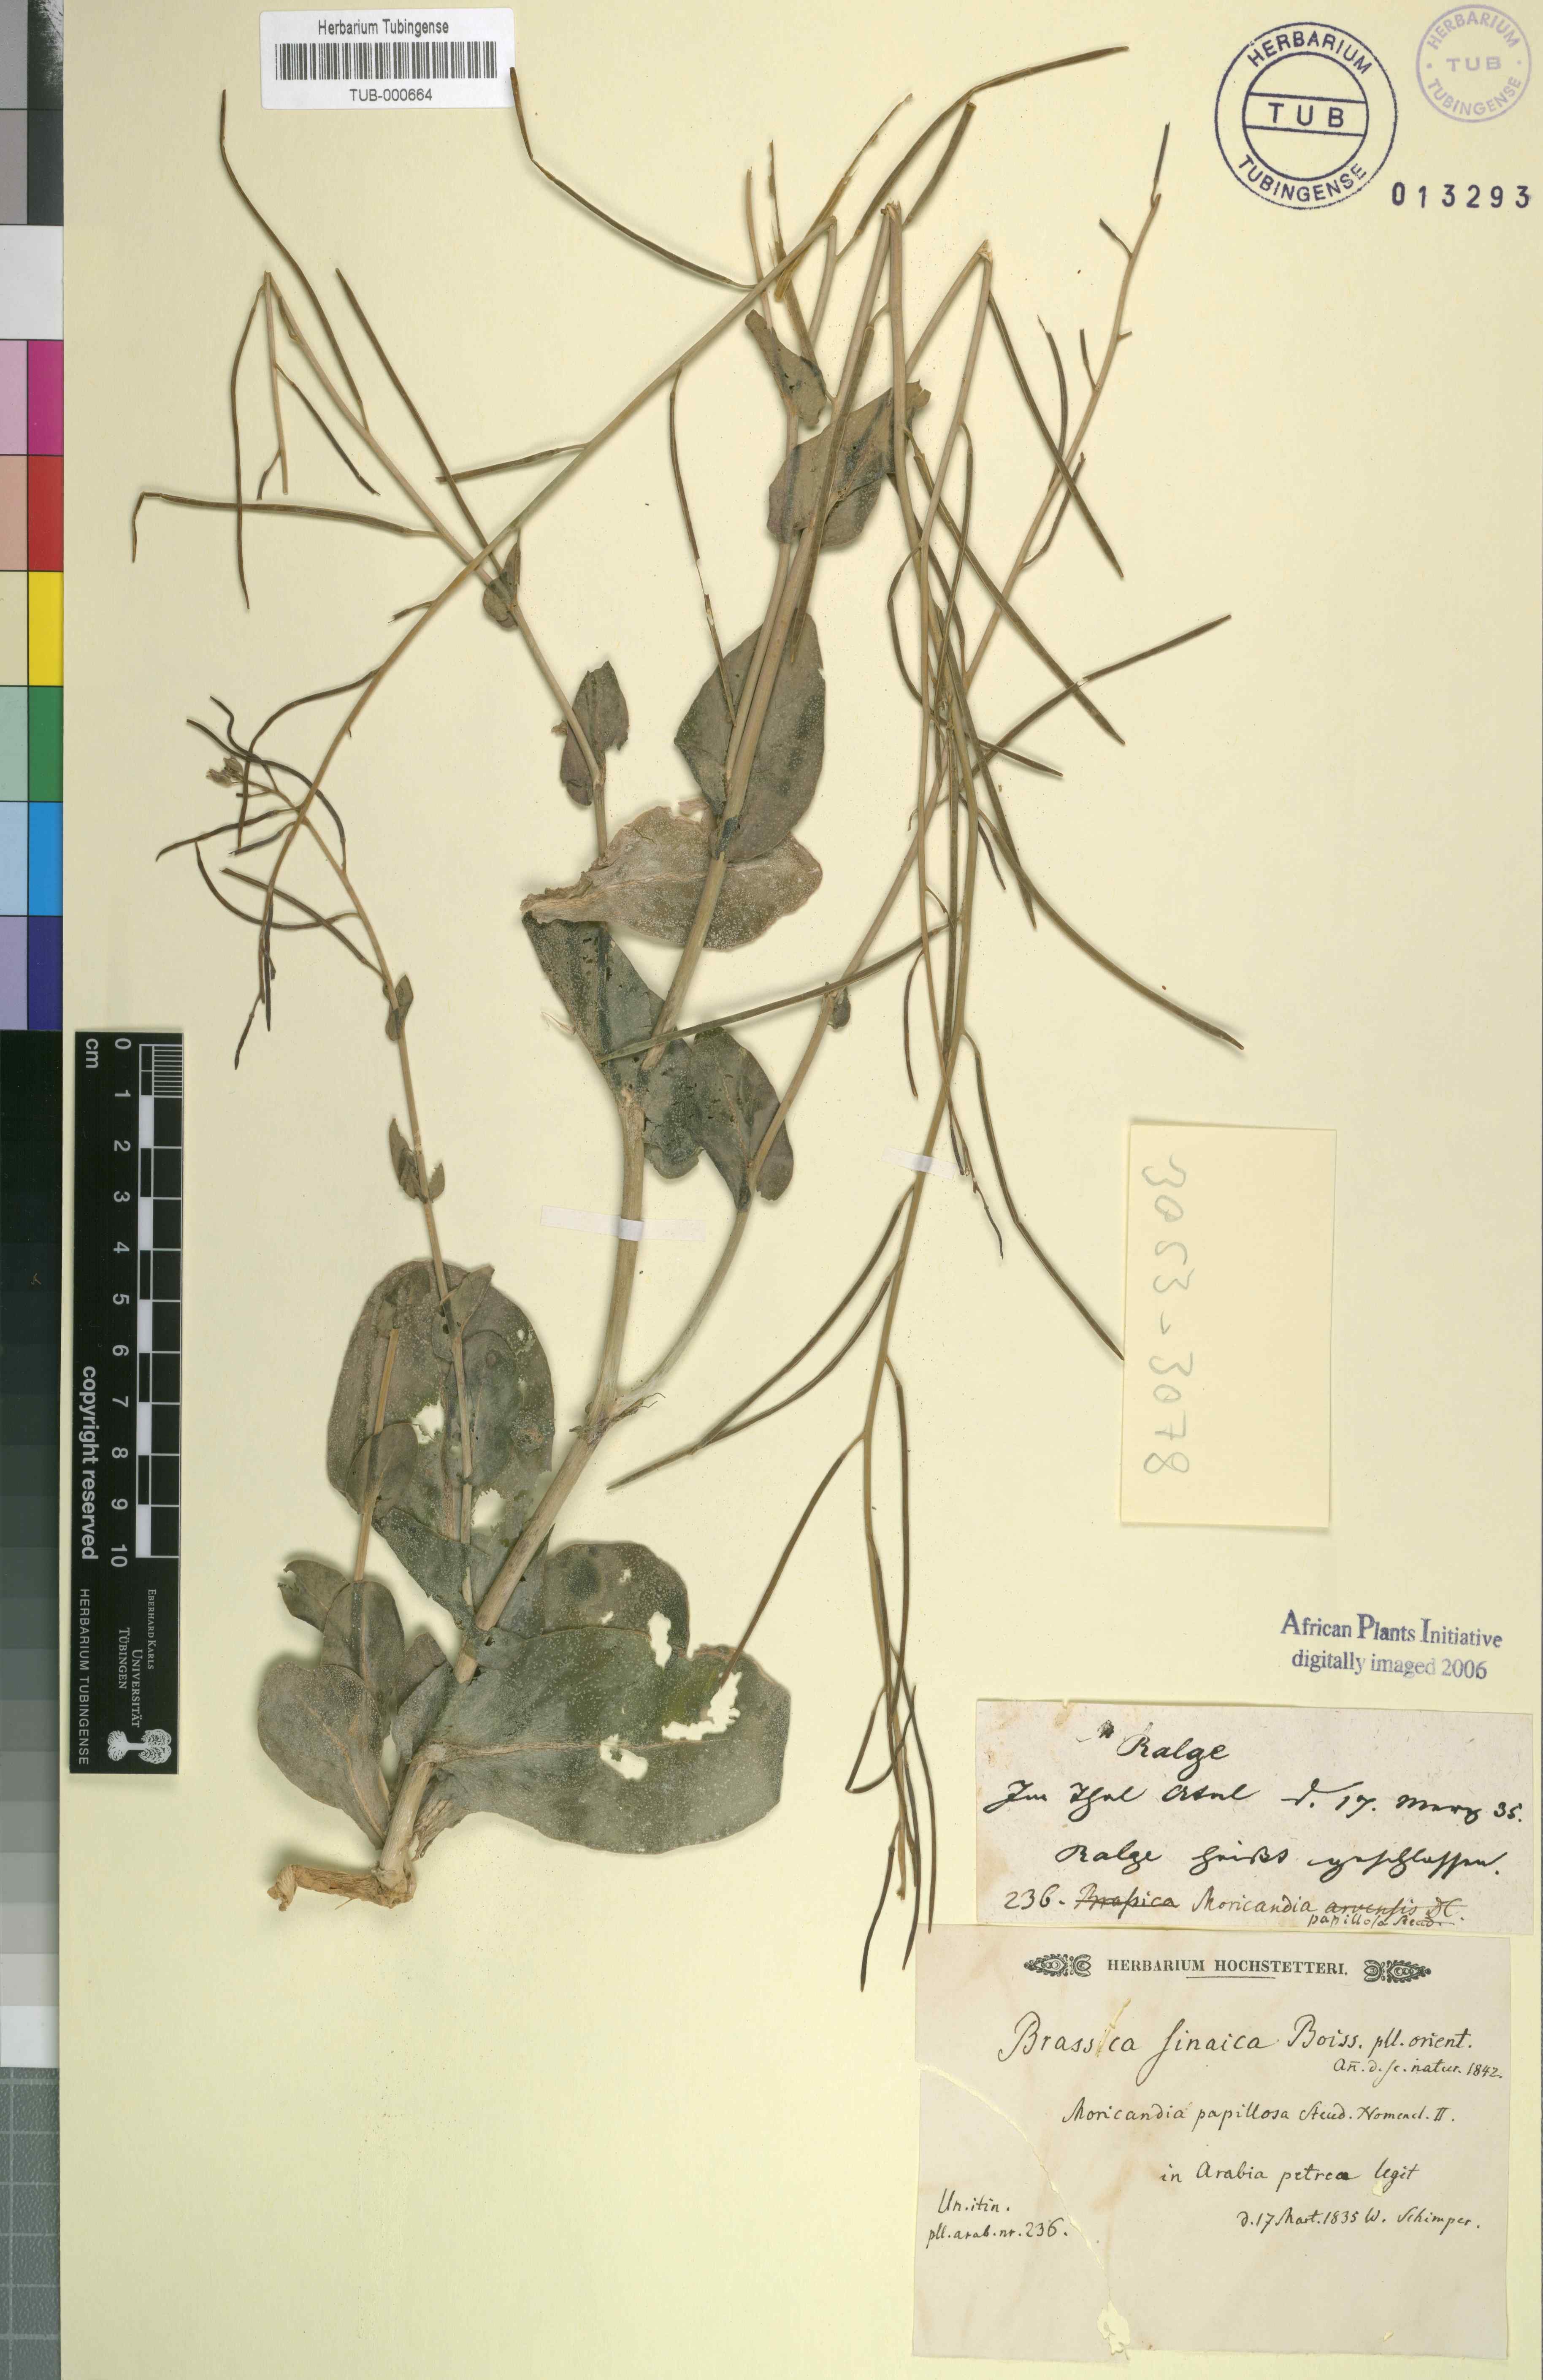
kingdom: Plantae
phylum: Tracheophyta
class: Magnoliopsida
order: Brassicales
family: Brassicaceae
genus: Moricandia
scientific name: Moricandia sinaica
